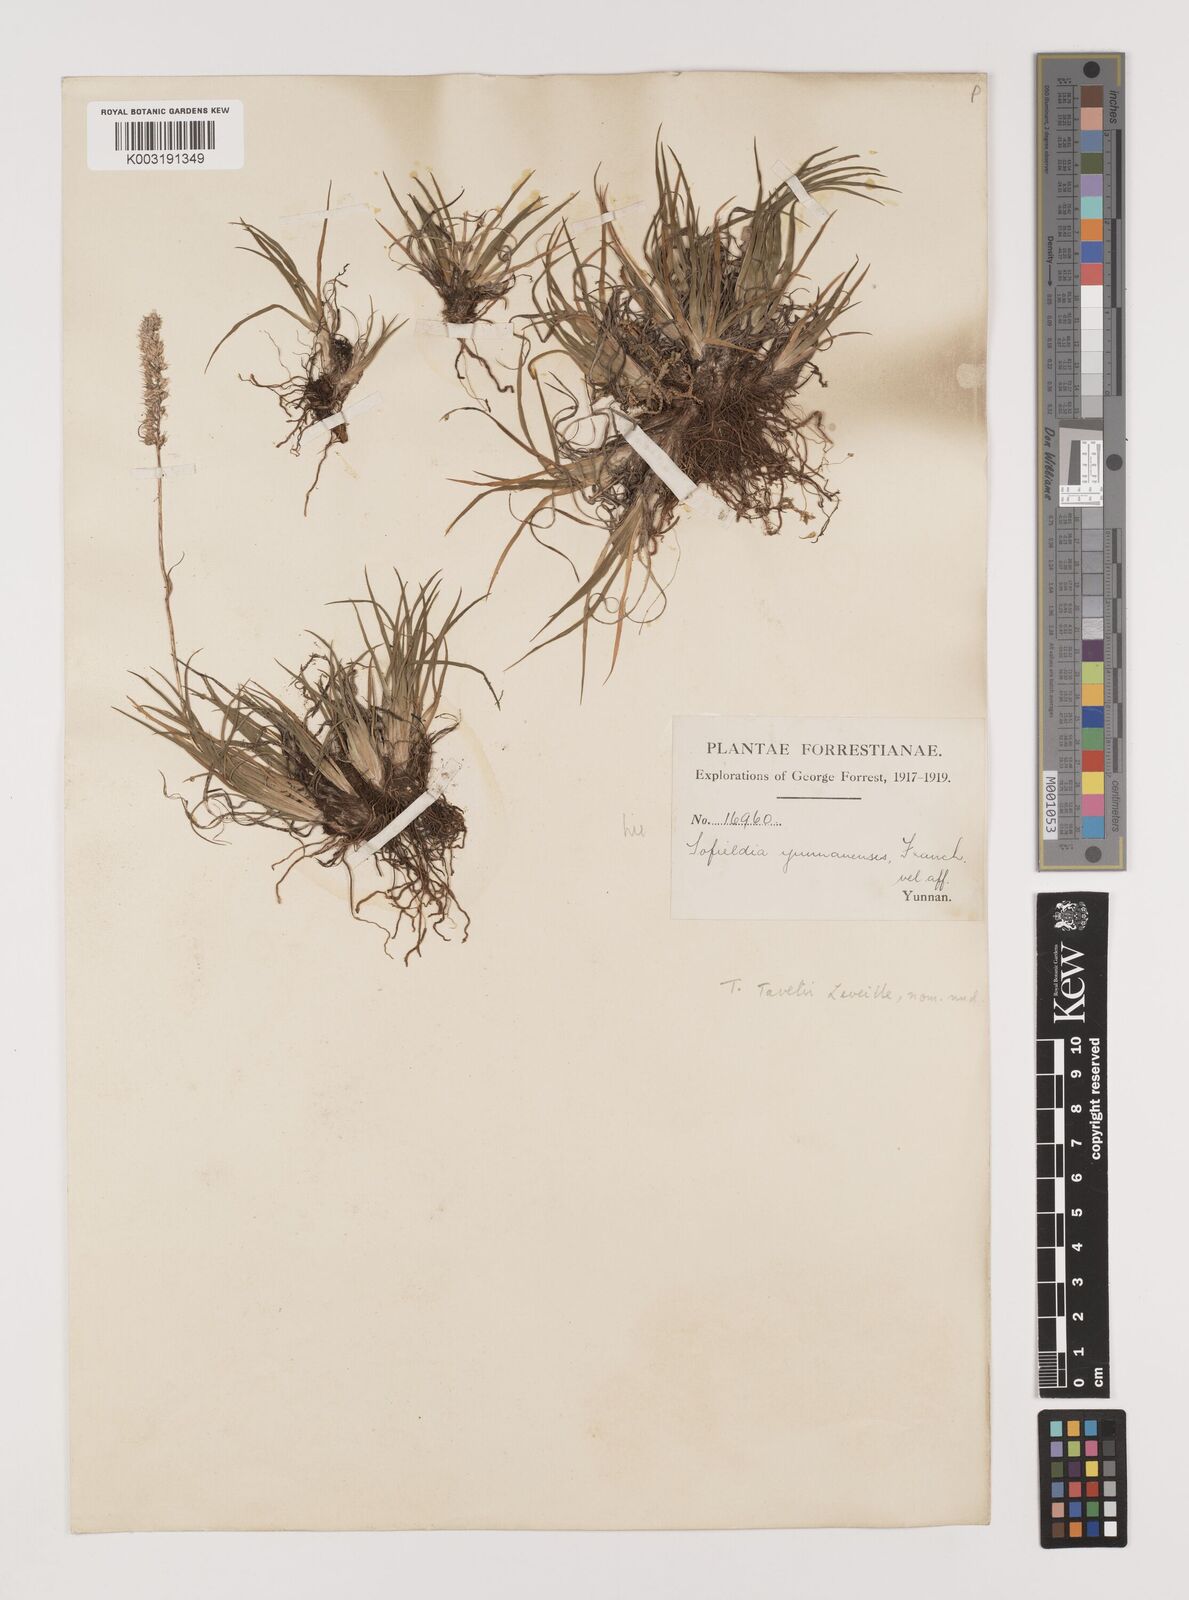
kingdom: Plantae
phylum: Tracheophyta
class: Liliopsida
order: Alismatales
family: Tofieldiaceae
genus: Tofieldia
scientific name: Tofieldia
